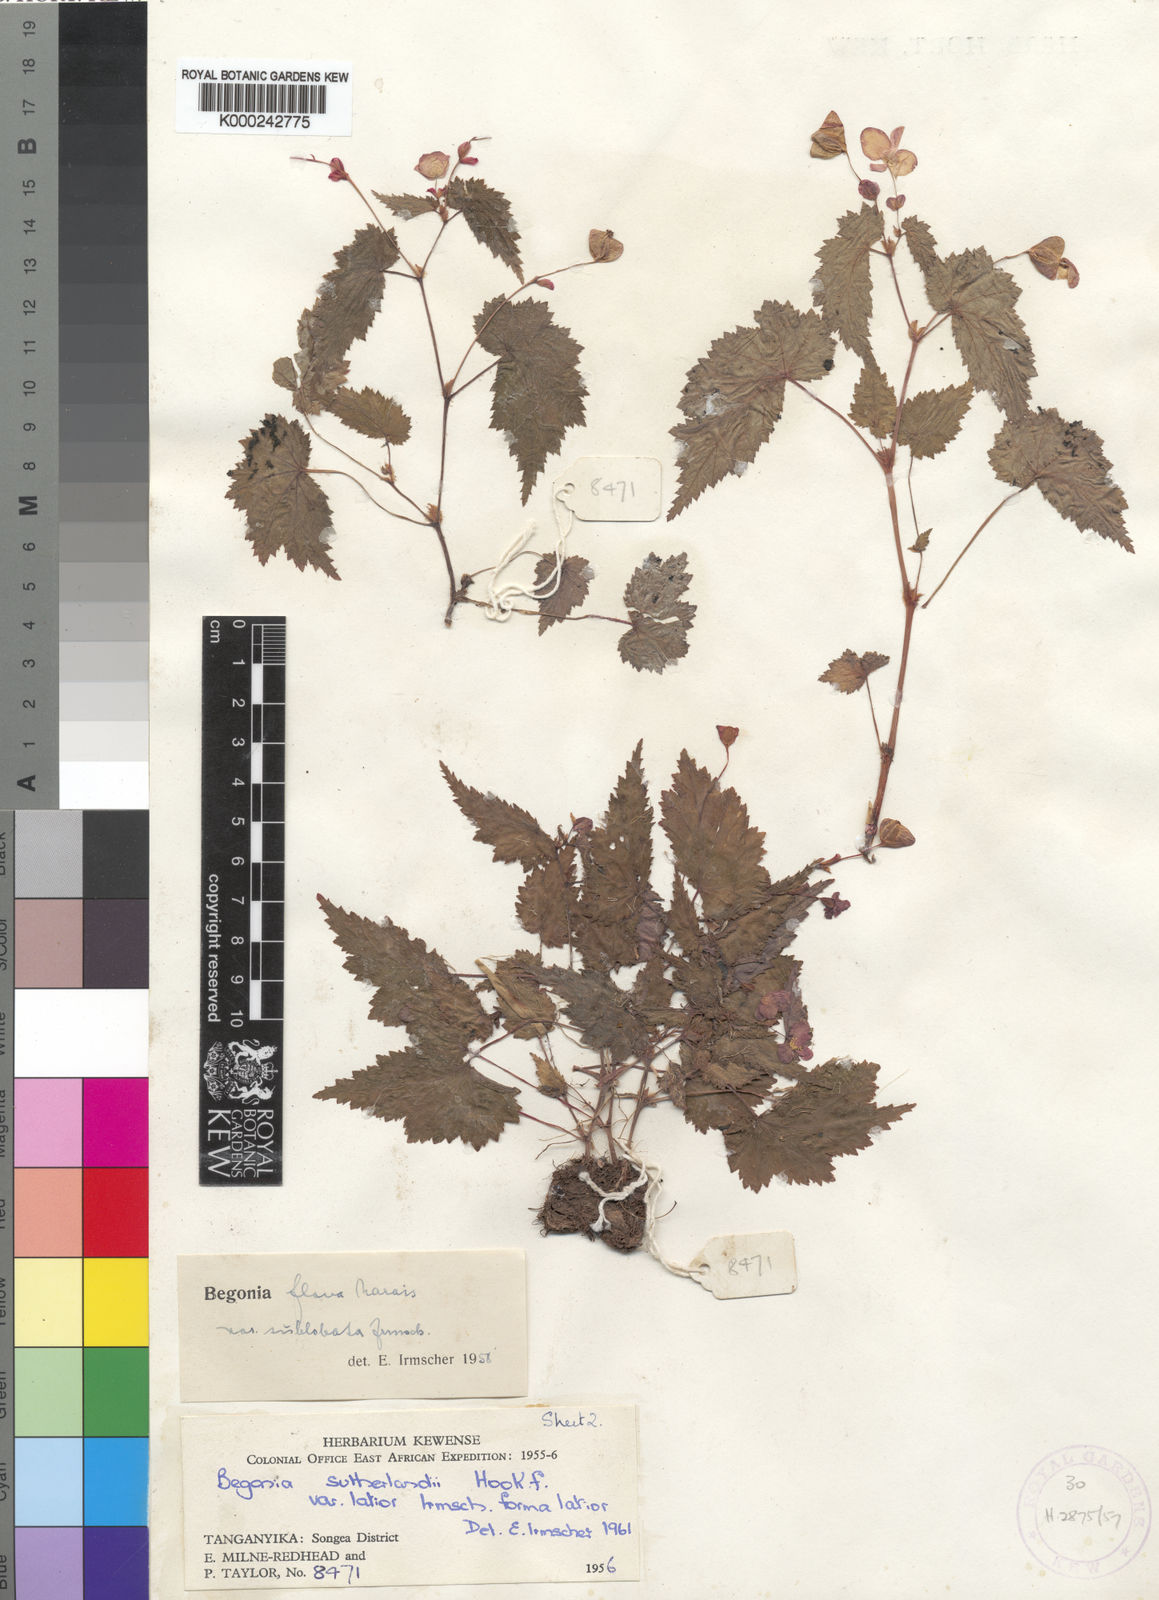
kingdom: Plantae
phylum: Tracheophyta
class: Magnoliopsida
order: Cucurbitales
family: Begoniaceae
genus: Begonia
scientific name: Begonia sutherlandii
